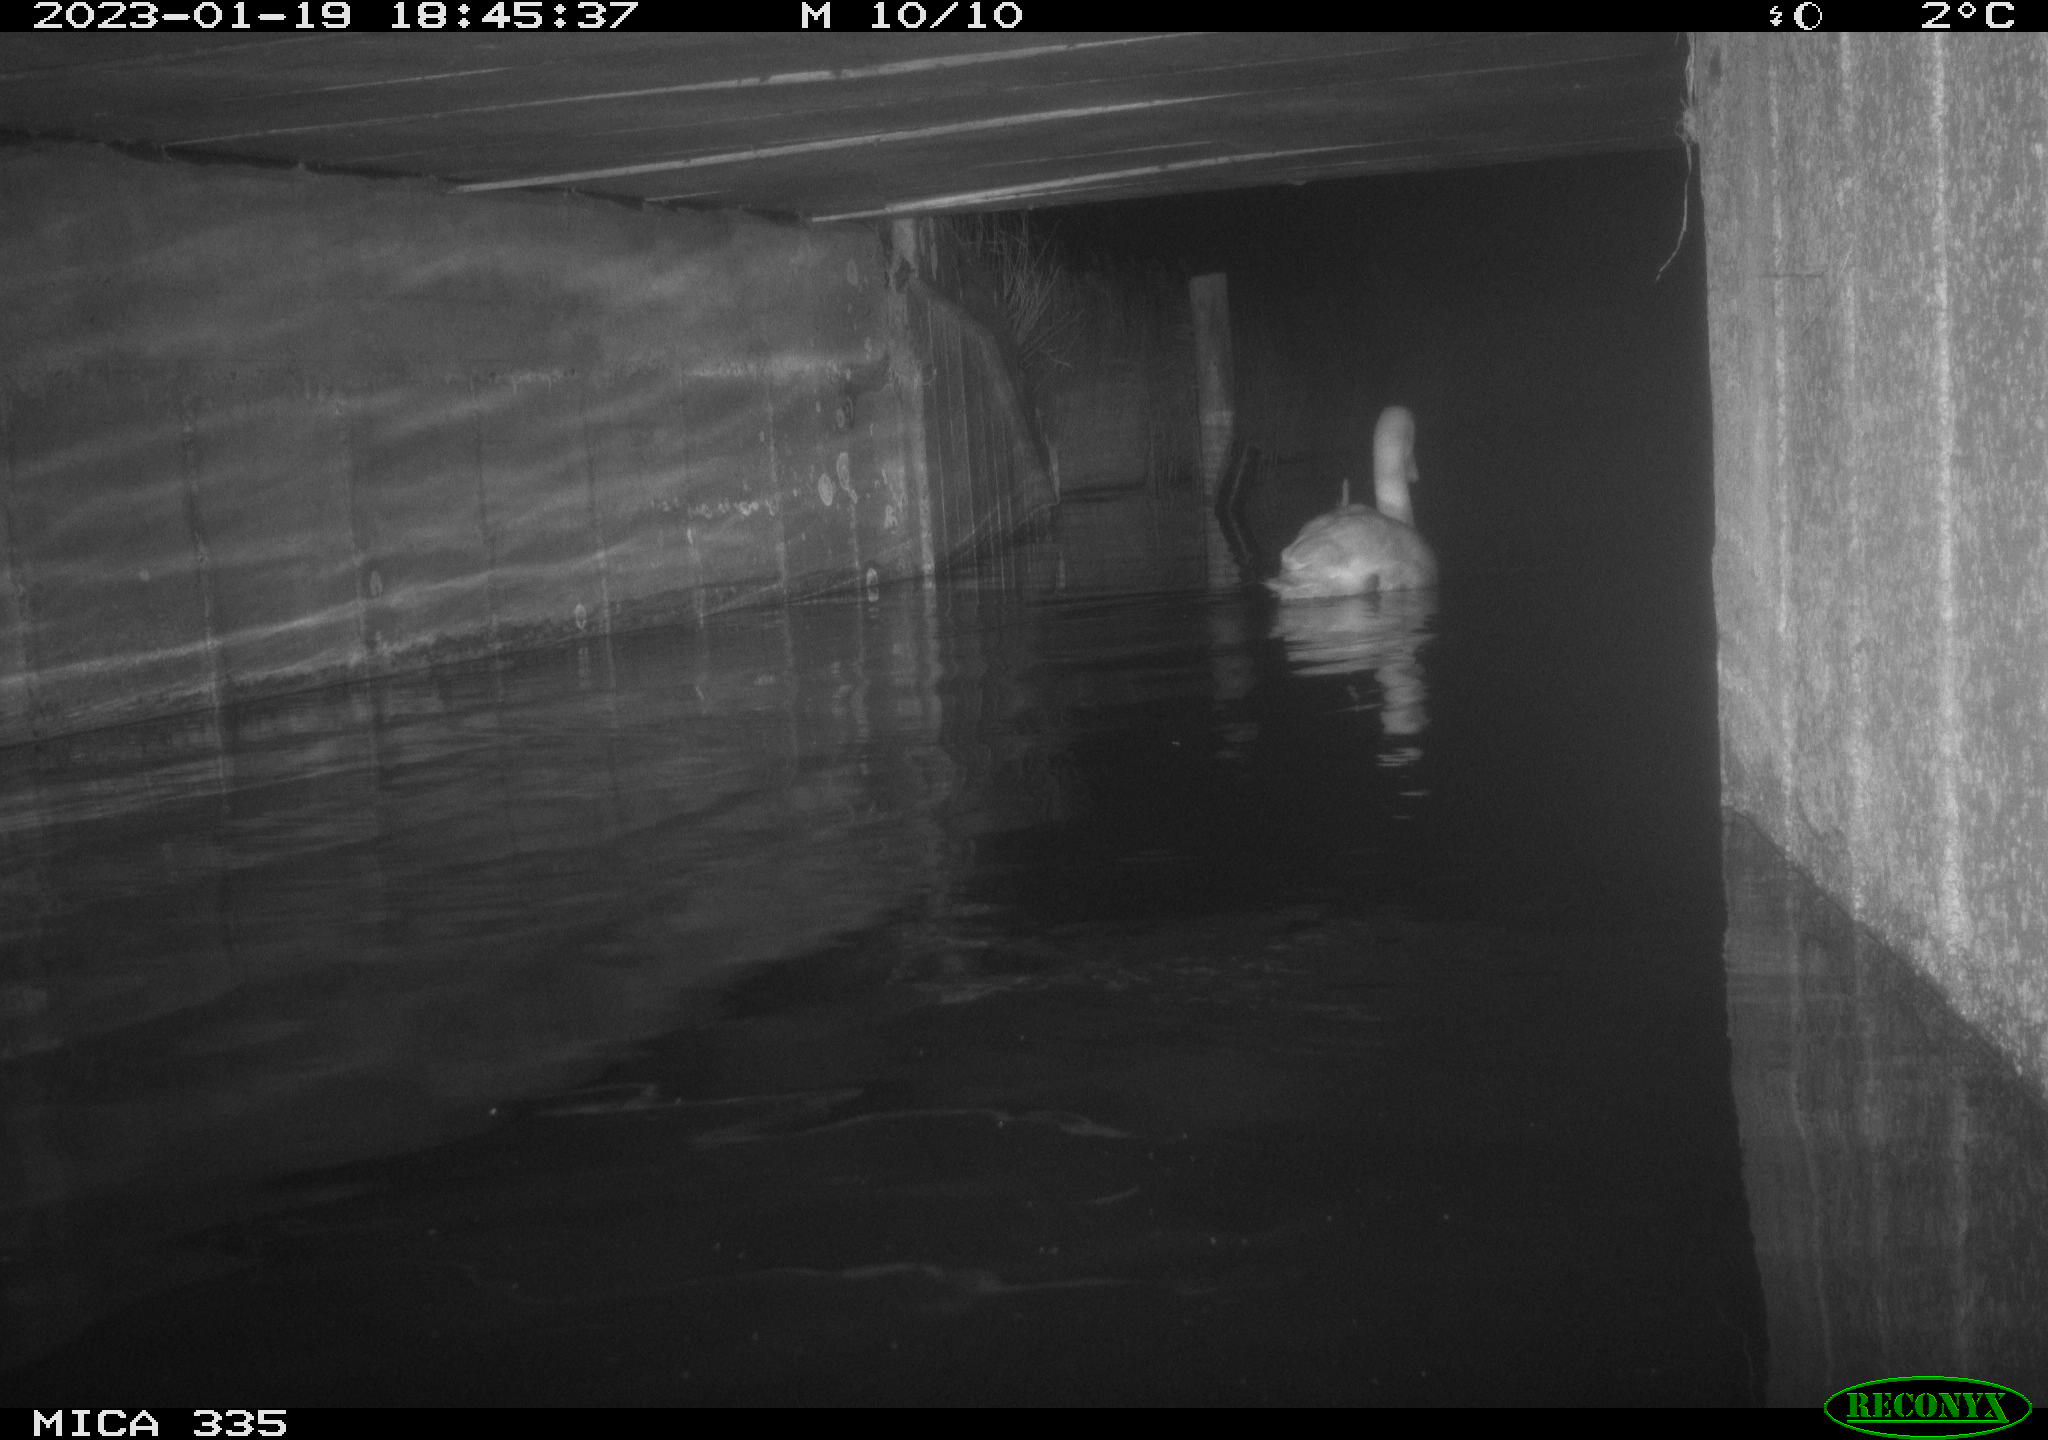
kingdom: Animalia
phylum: Chordata
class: Aves
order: Anseriformes
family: Anatidae
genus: Cygnus
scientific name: Cygnus olor
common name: Mute swan
